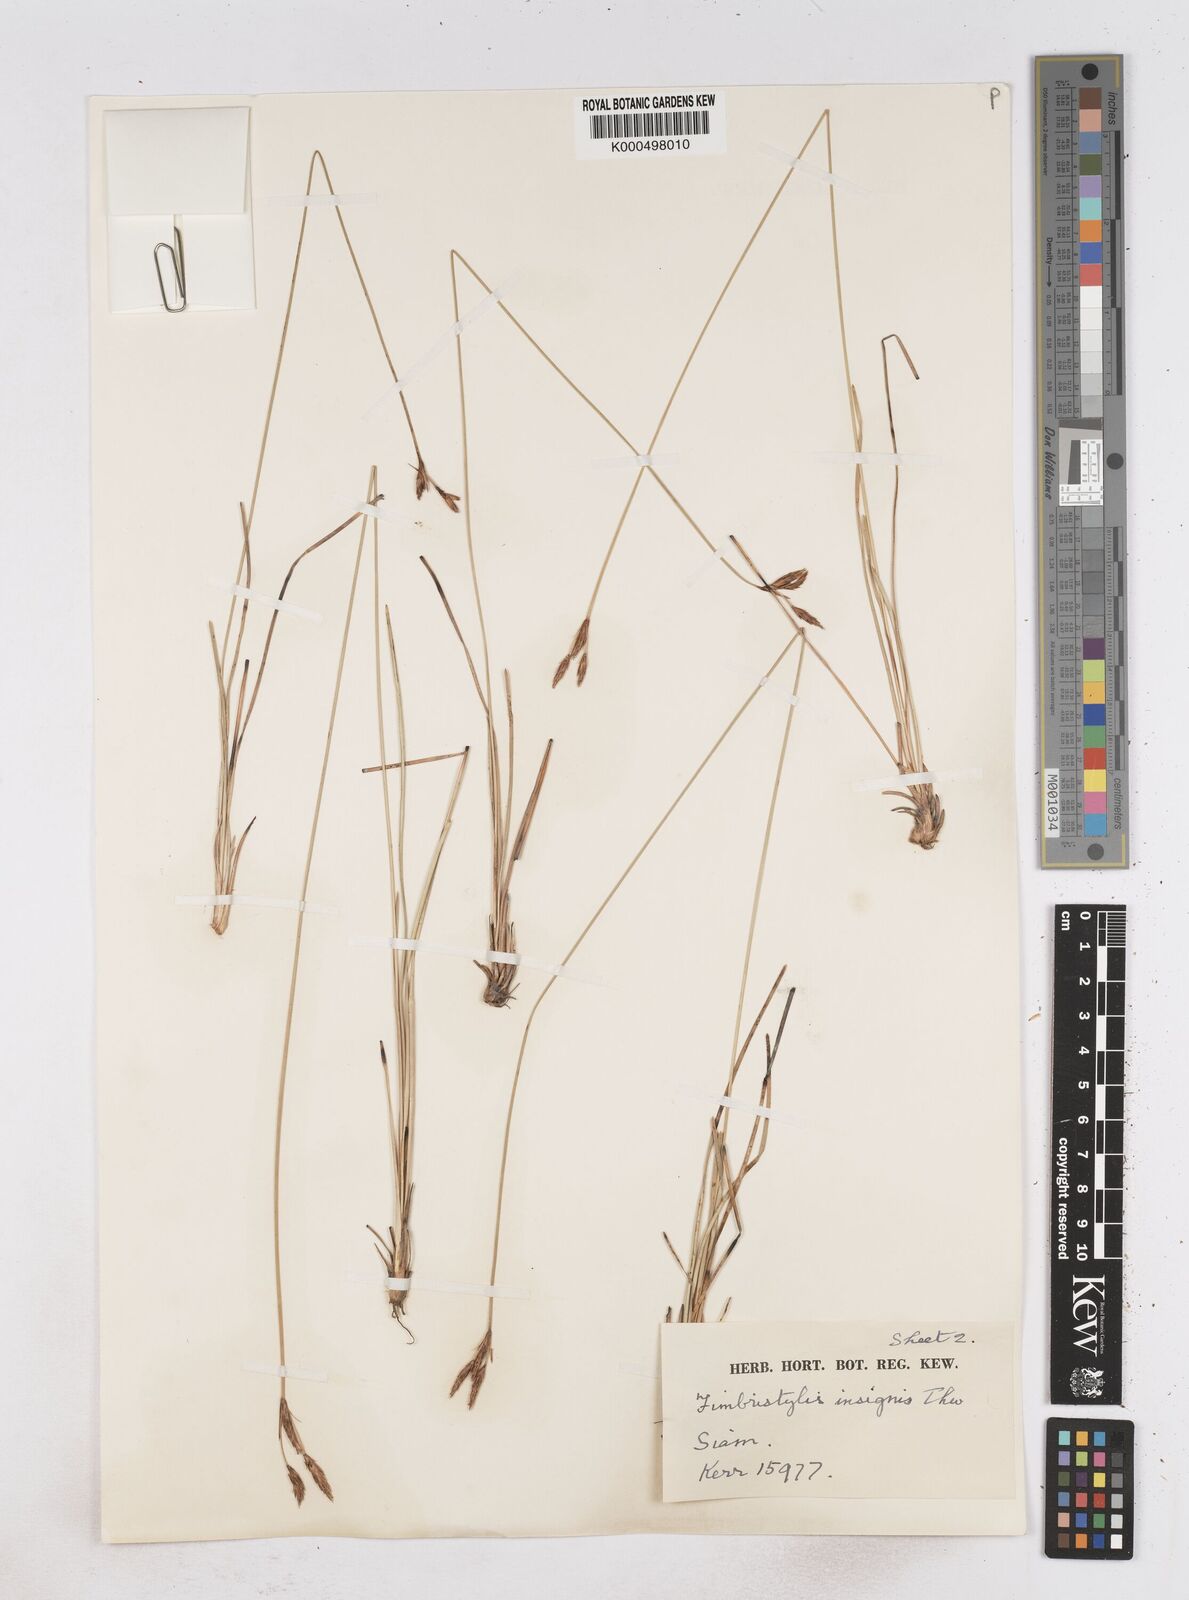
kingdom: Plantae
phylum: Tracheophyta
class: Liliopsida
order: Poales
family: Cyperaceae
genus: Fimbristylis
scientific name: Fimbristylis insignis
